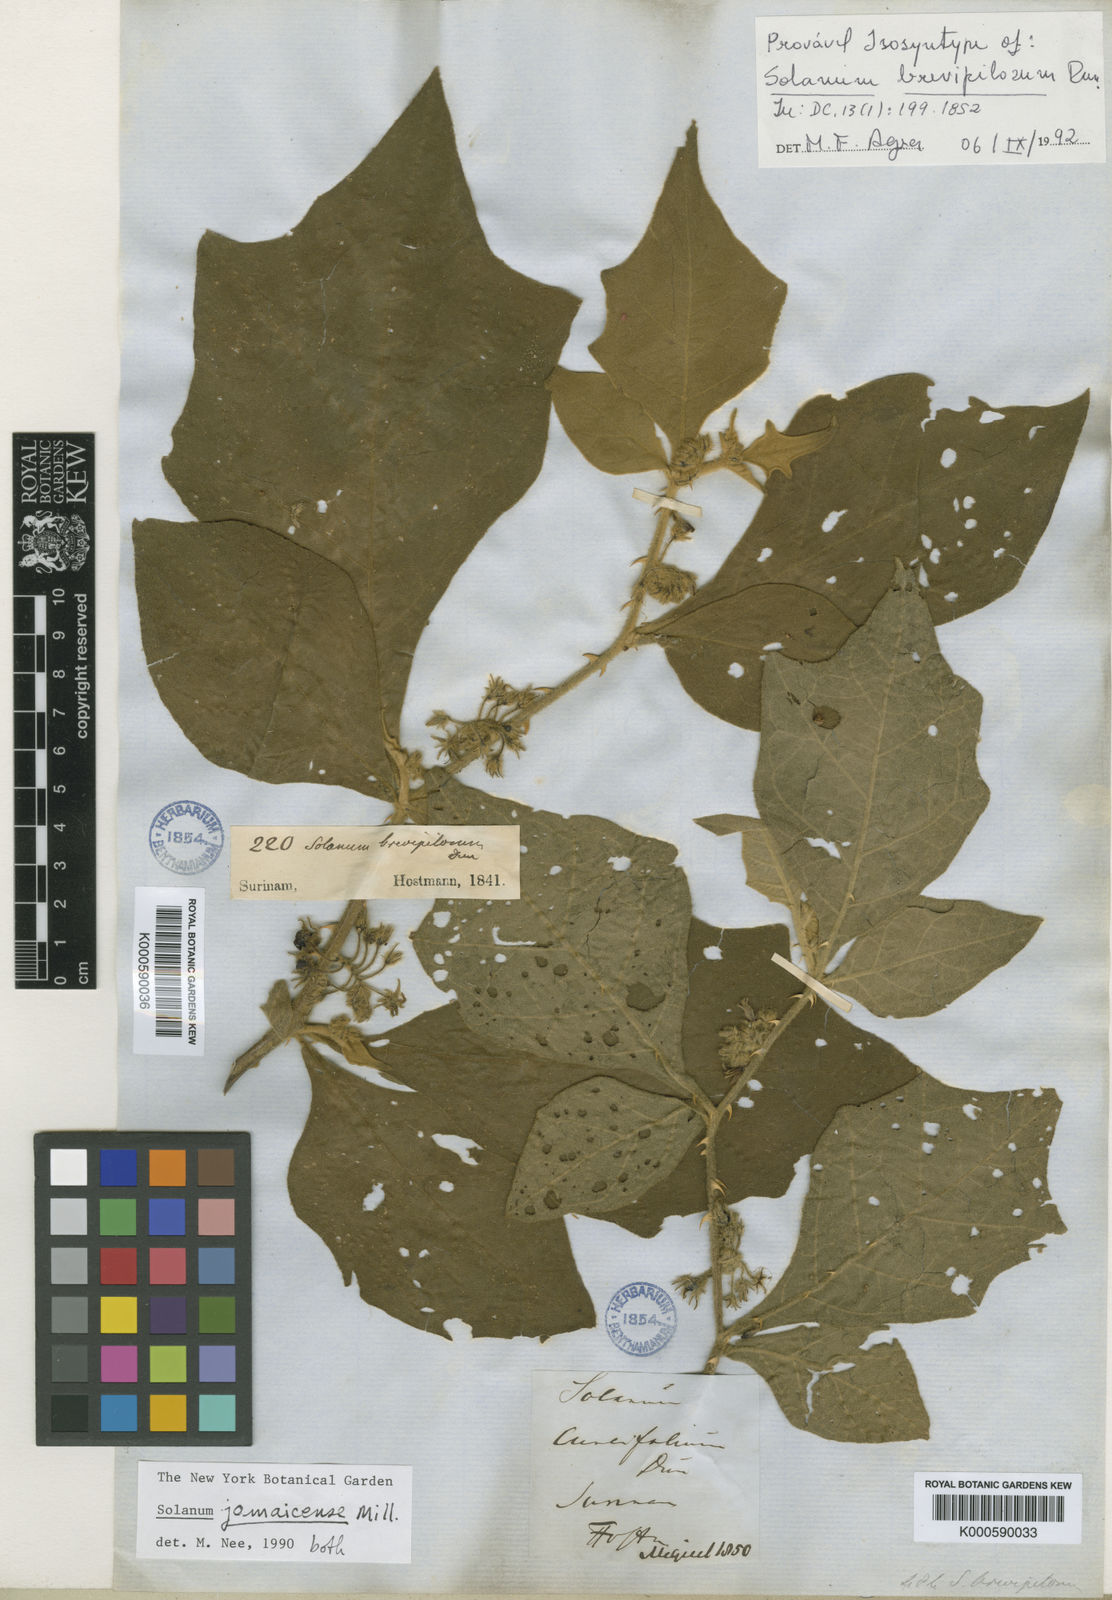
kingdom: Plantae
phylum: Tracheophyta
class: Magnoliopsida
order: Solanales
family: Solanaceae
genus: Solanum
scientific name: Solanum jamaicense
